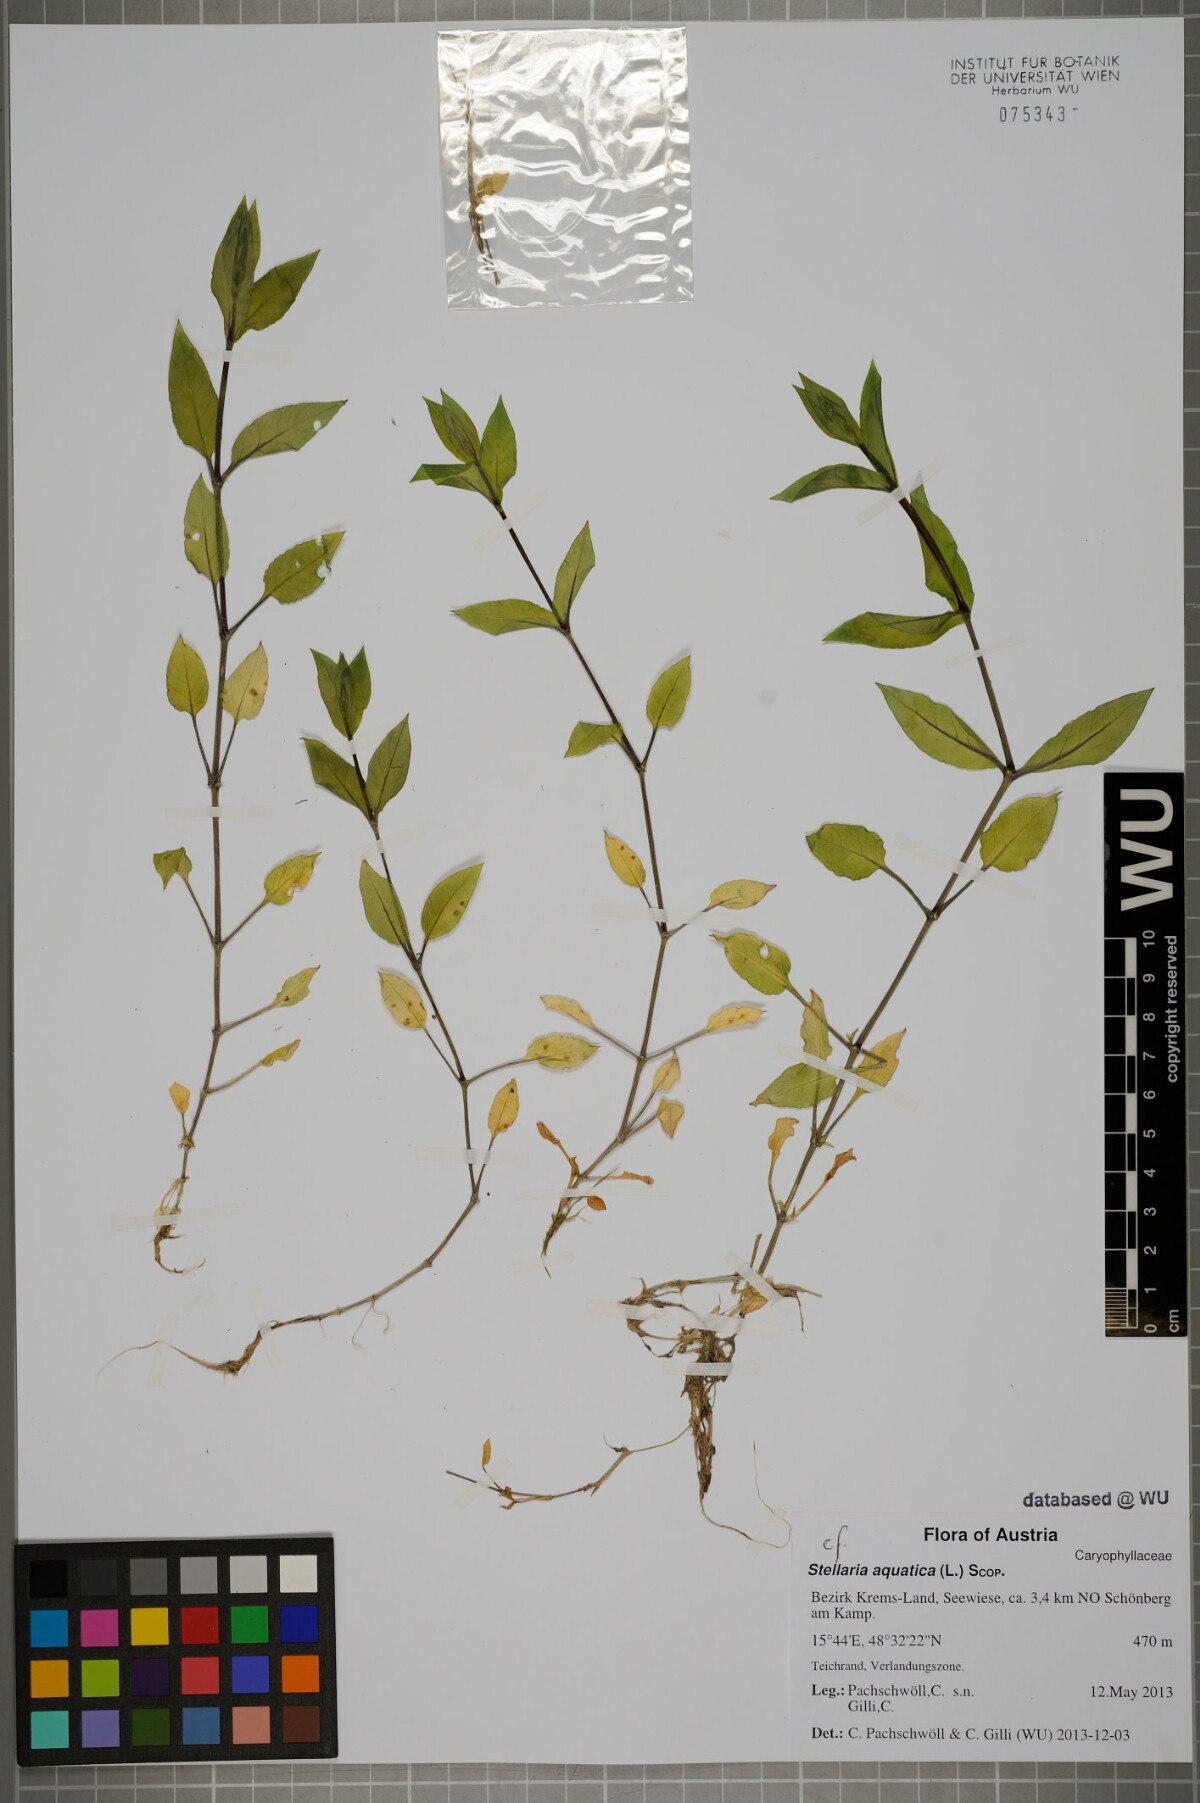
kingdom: Plantae
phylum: Tracheophyta
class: Magnoliopsida
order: Caryophyllales
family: Caryophyllaceae
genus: Stellaria
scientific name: Stellaria aquatica
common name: Water chickweed
